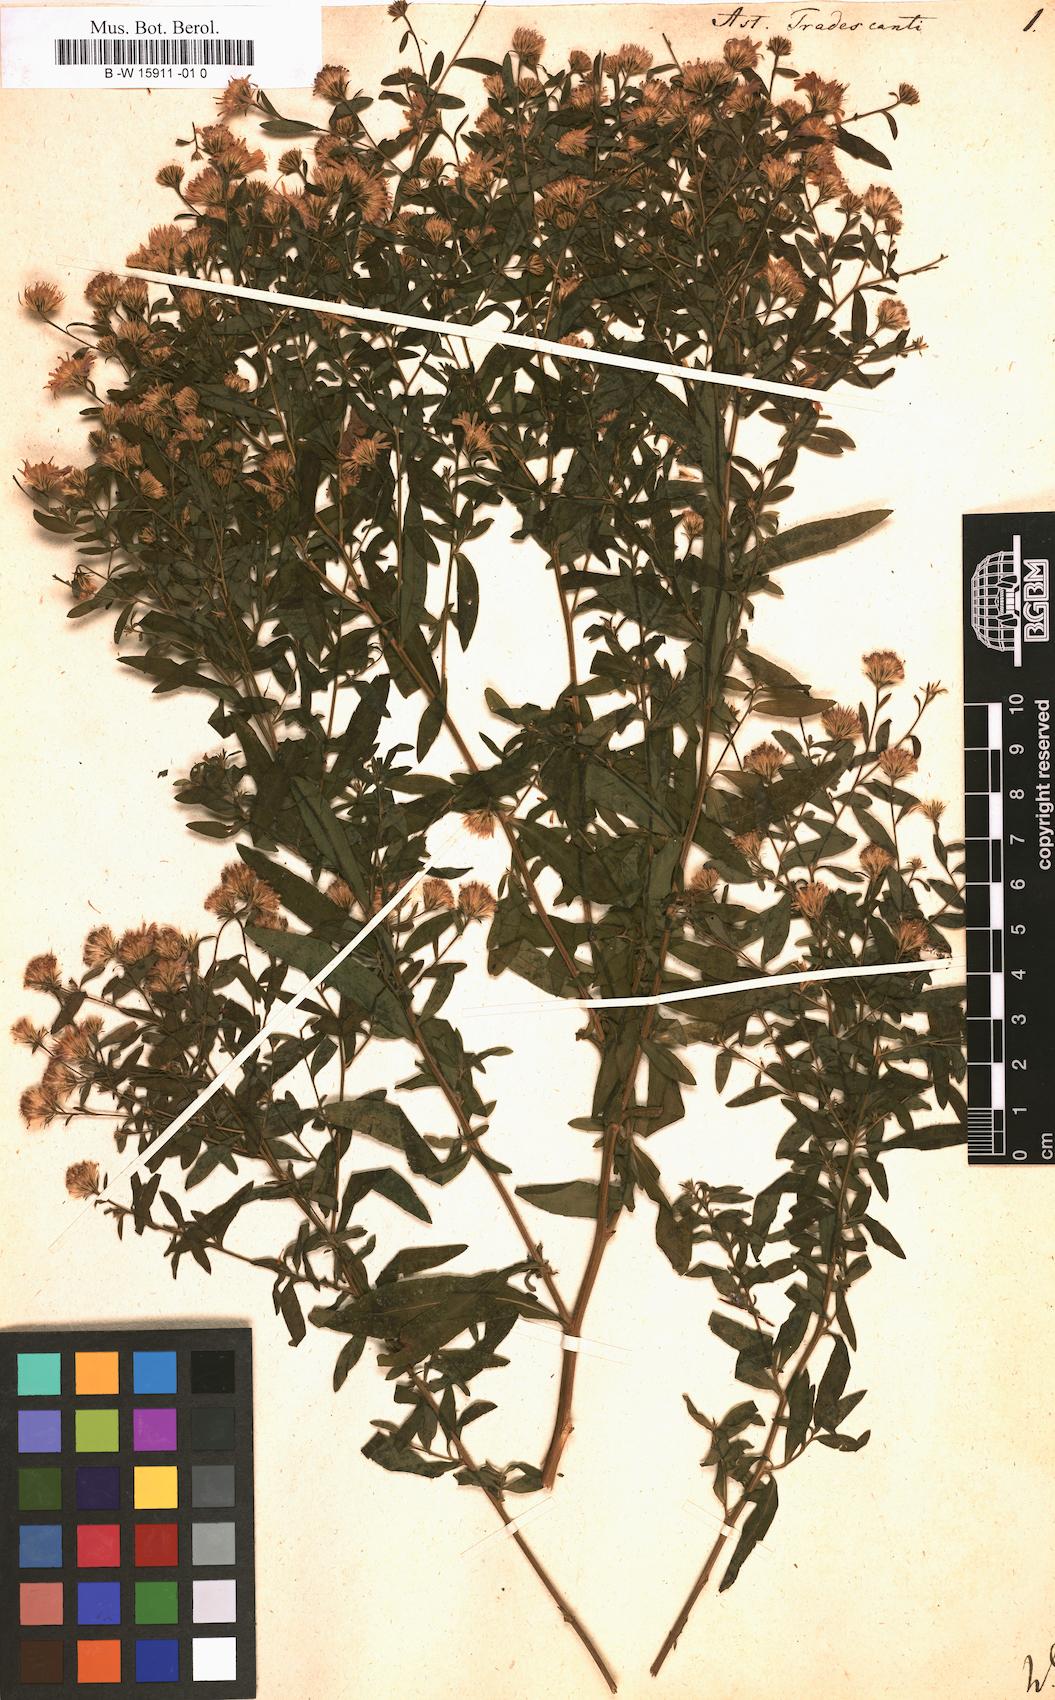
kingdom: Plantae
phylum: Tracheophyta
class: Magnoliopsida
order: Asterales
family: Asteraceae
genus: Aster
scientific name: Aster tradescanti
